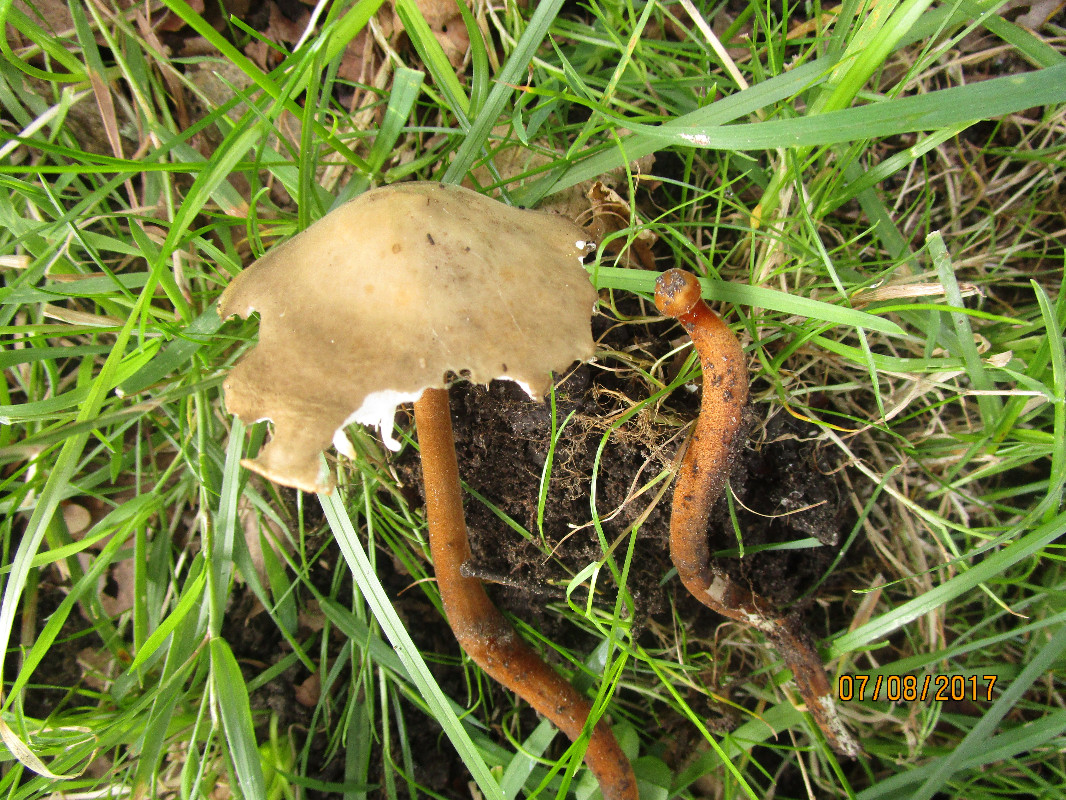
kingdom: Fungi
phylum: Basidiomycota
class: Agaricomycetes
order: Agaricales
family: Physalacriaceae
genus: Xerula
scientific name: Xerula pudens
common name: filtet pælerodshat
